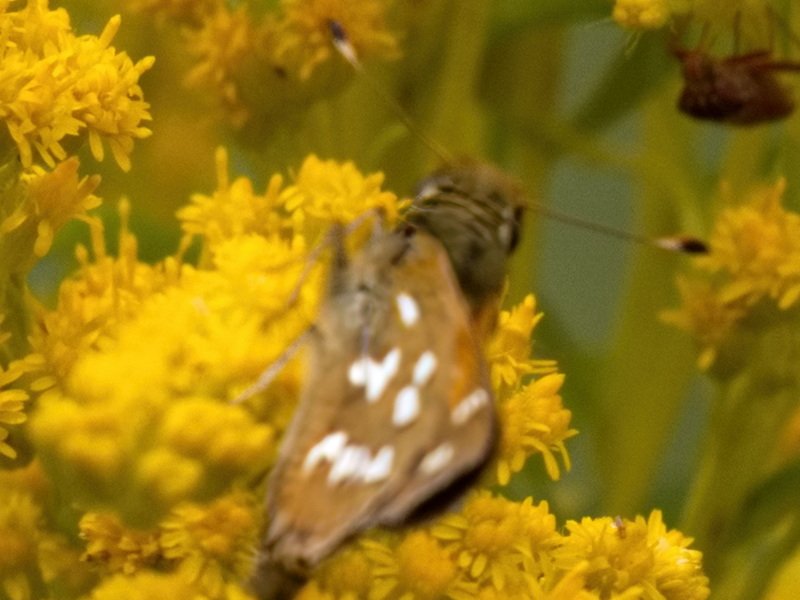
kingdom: Animalia
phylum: Arthropoda
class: Insecta
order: Lepidoptera
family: Hesperiidae
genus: Hesperia
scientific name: Hesperia comma
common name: Common Branded Skipper
